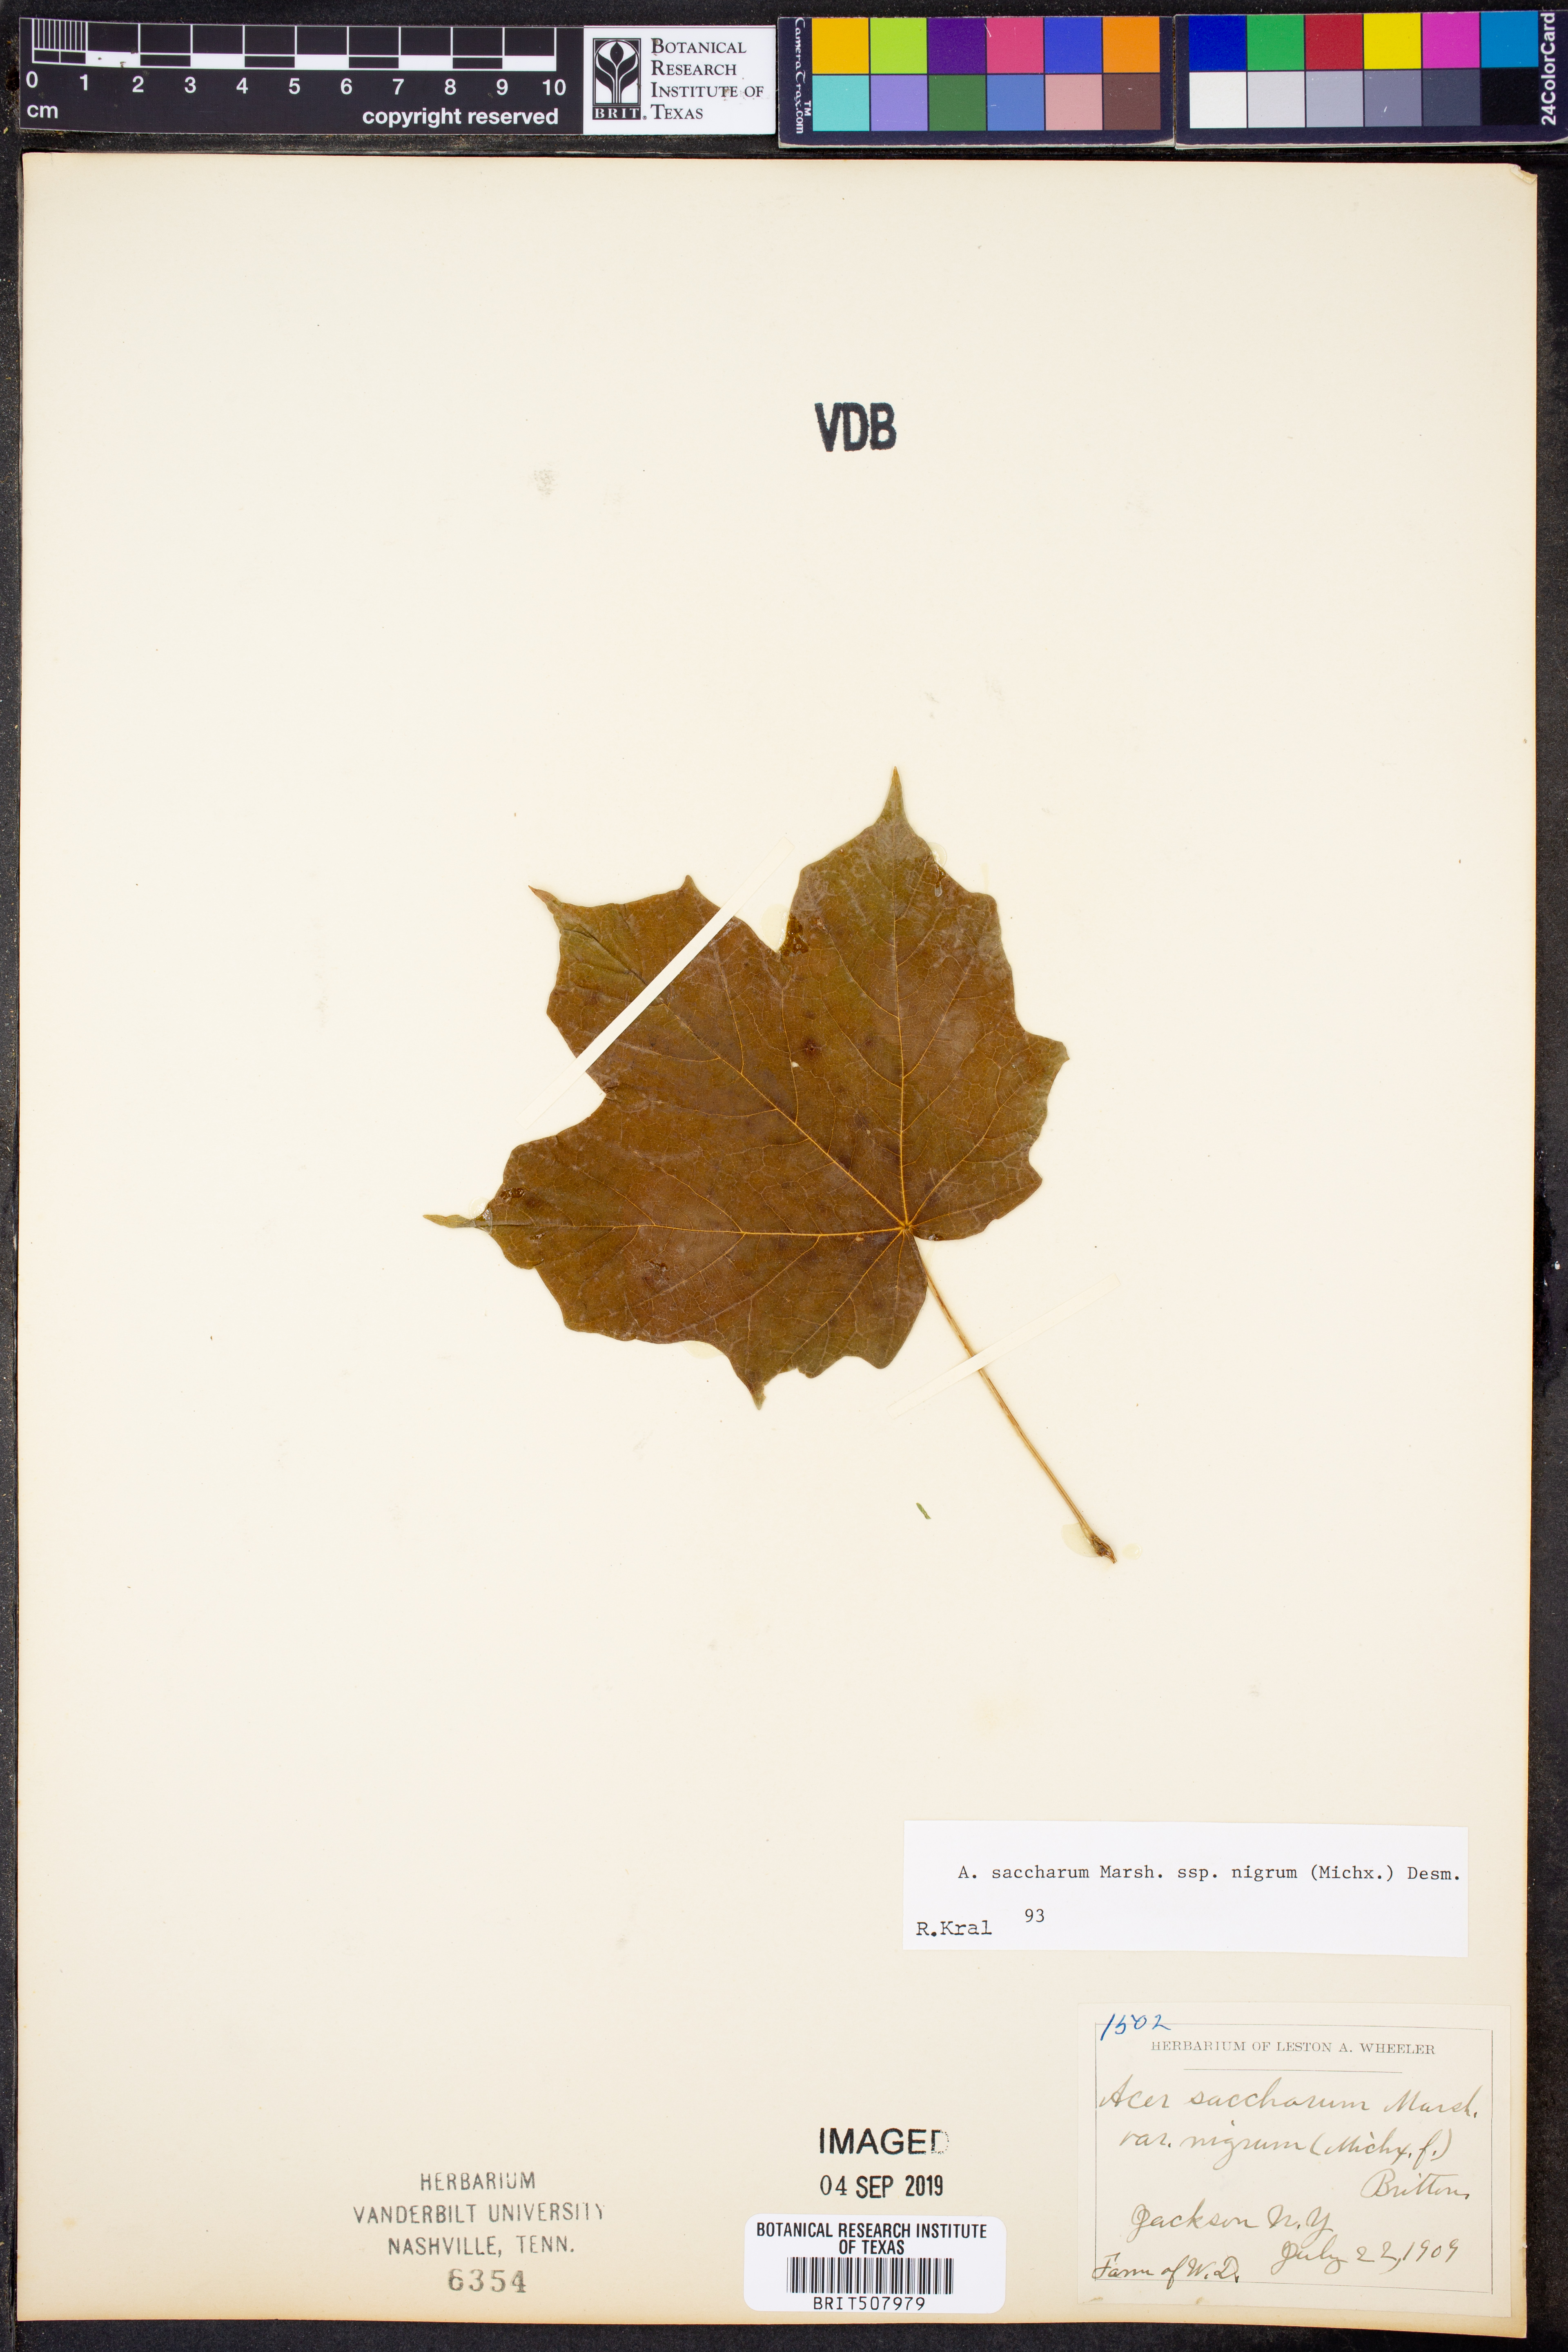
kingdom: Plantae
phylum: Tracheophyta
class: Magnoliopsida
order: Sapindales
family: Sapindaceae
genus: Acer
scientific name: Acer nigrum
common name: Black maple
